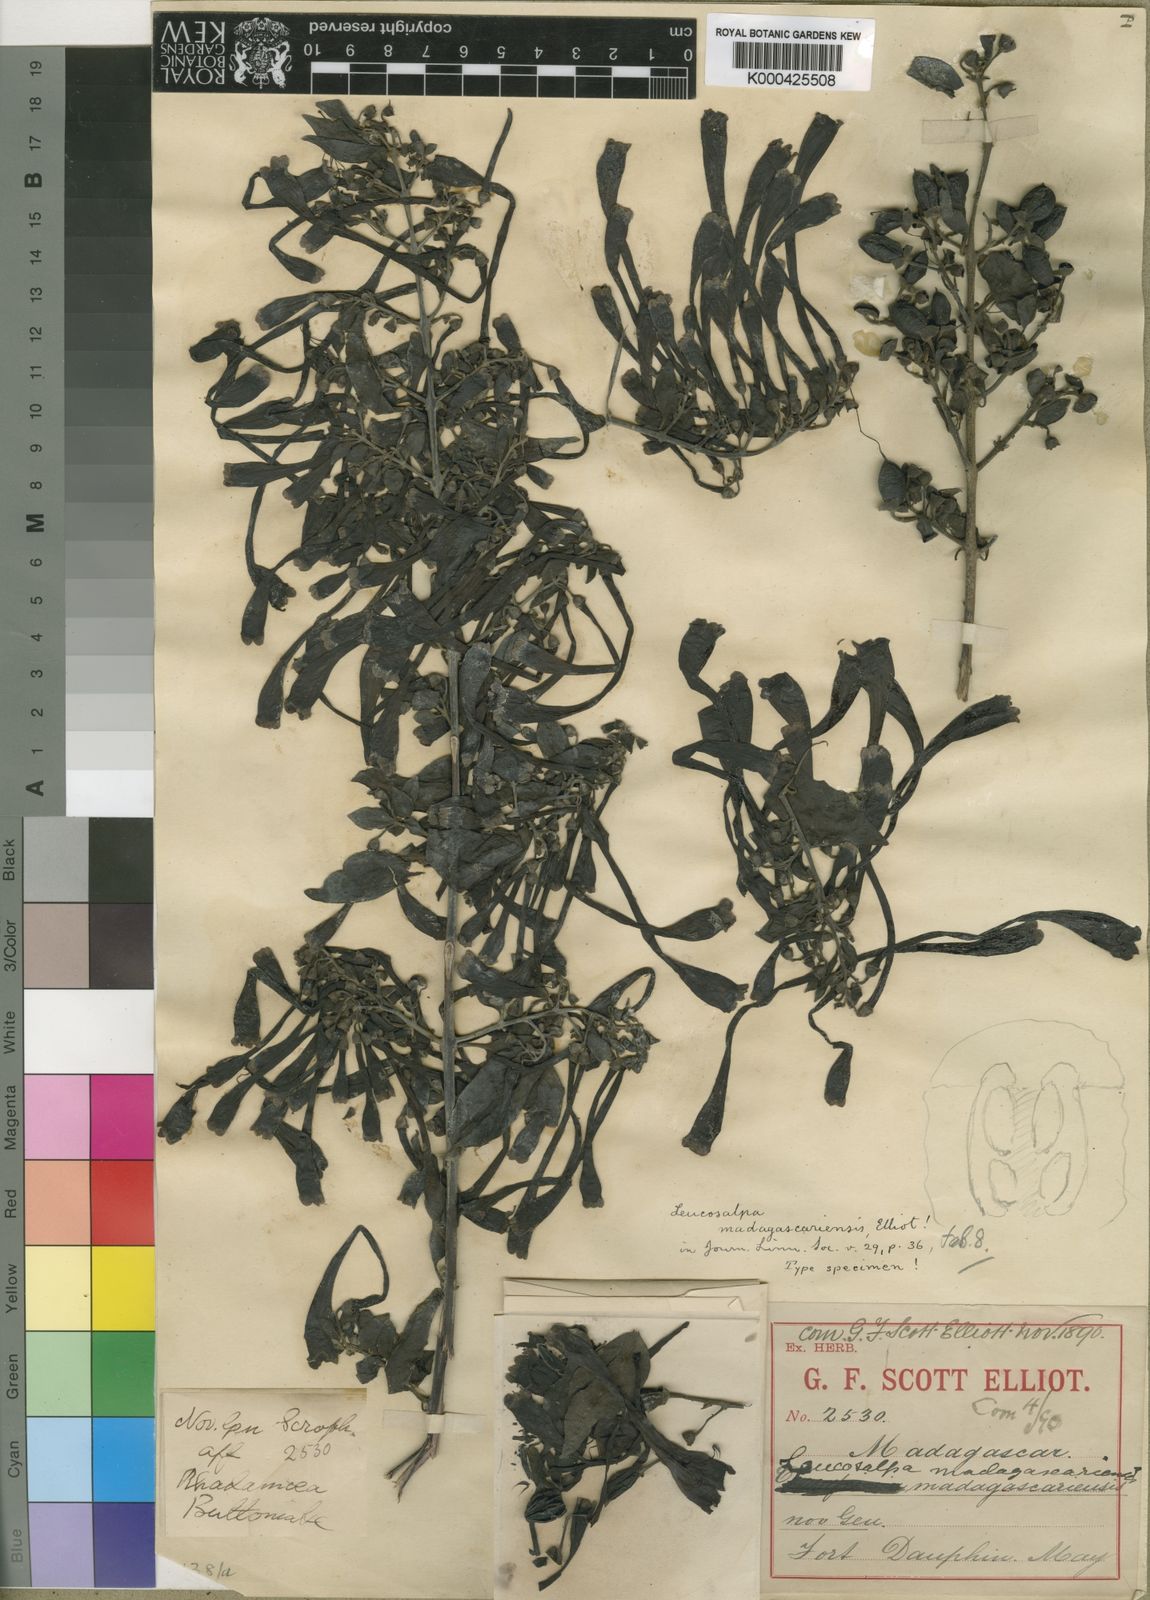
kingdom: Plantae
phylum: Tracheophyta
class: Magnoliopsida
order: Lamiales
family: Orobanchaceae
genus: Leucosalpa
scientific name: Leucosalpa madagascariensis
